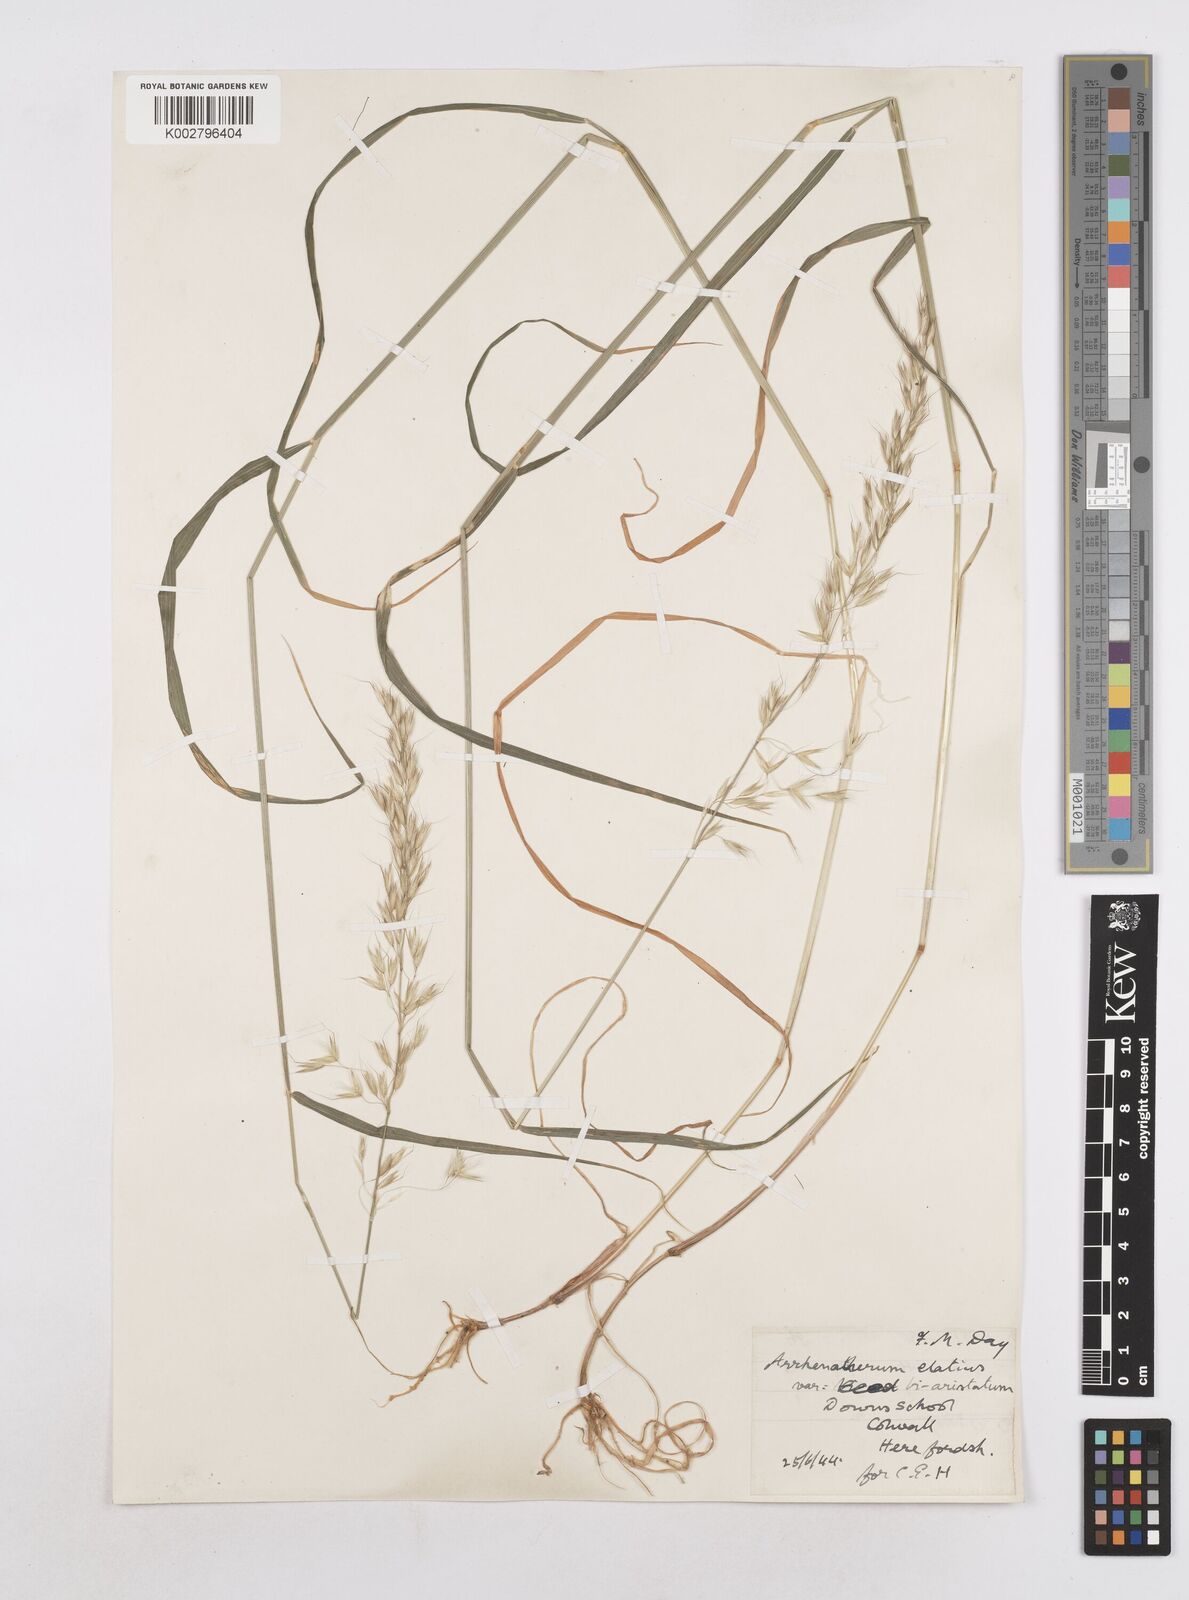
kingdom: Plantae
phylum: Tracheophyta
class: Liliopsida
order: Poales
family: Poaceae
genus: Arrhenatherum
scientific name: Arrhenatherum elatius
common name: Tall oatgrass
